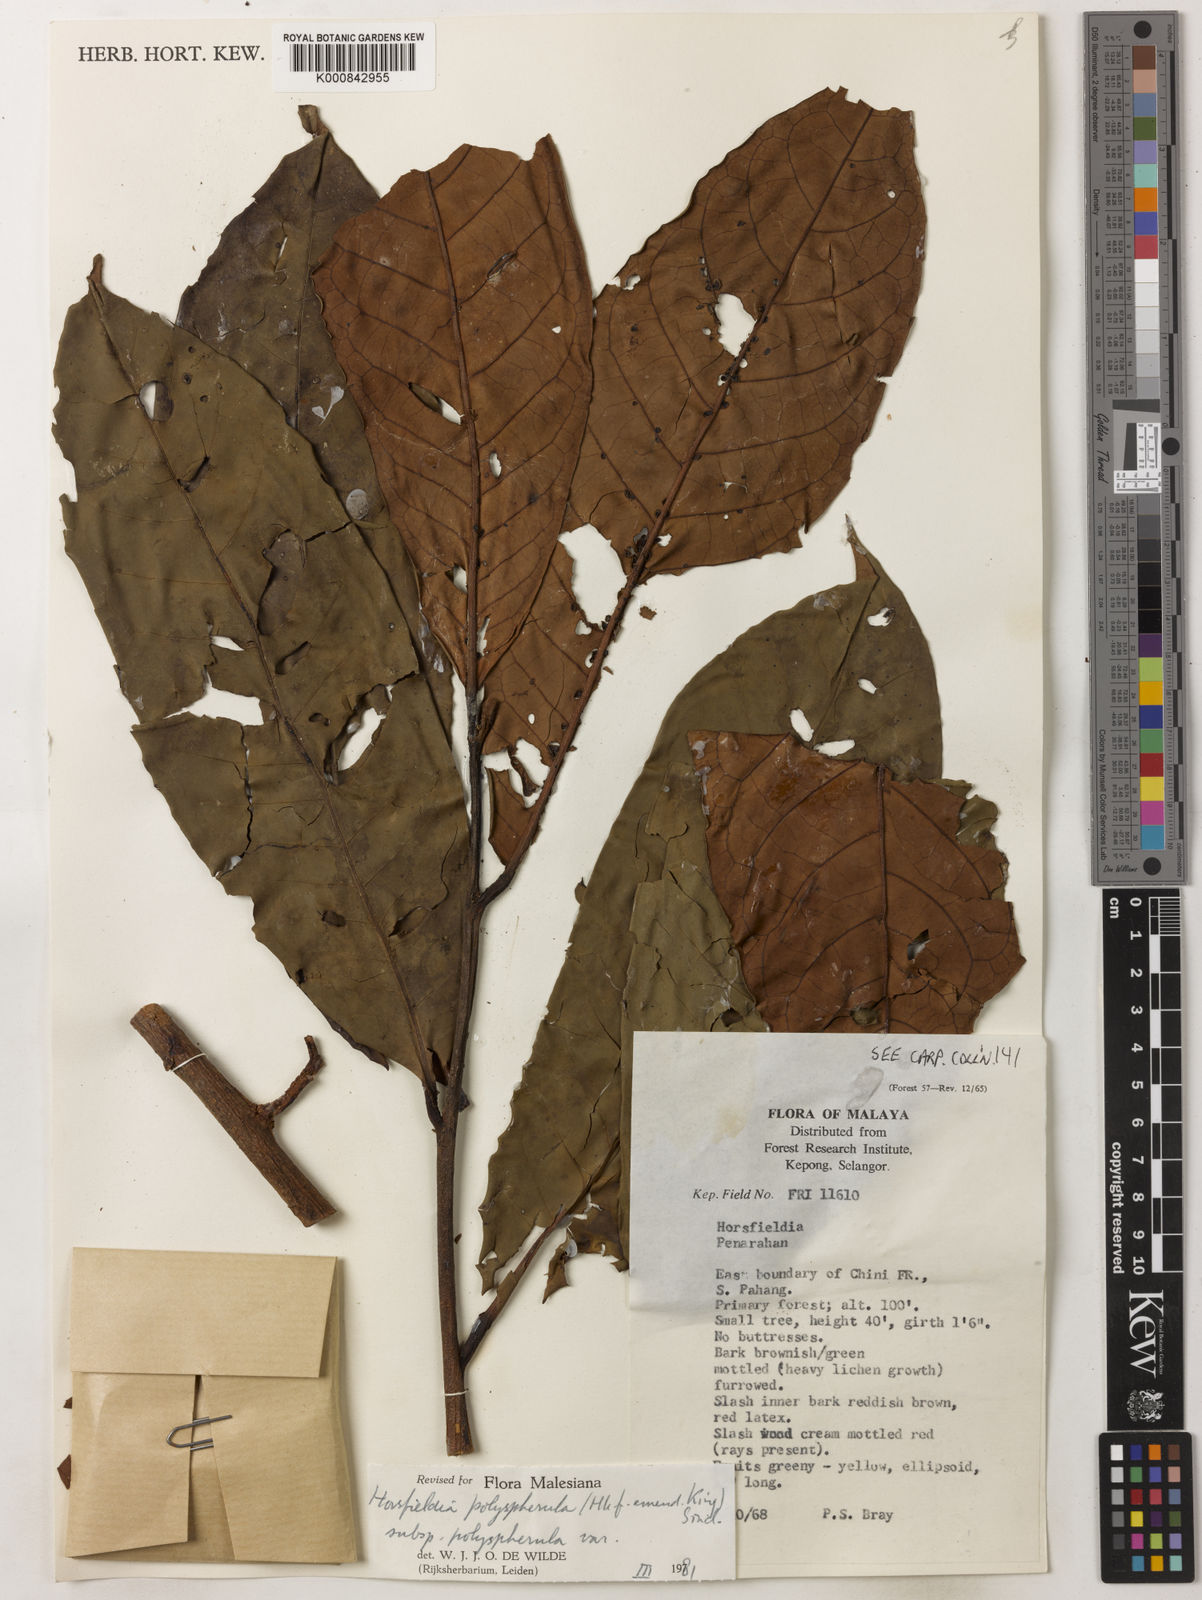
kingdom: Plantae
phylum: Tracheophyta
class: Magnoliopsida
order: Magnoliales
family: Myristicaceae
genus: Horsfieldia
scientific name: Horsfieldia
